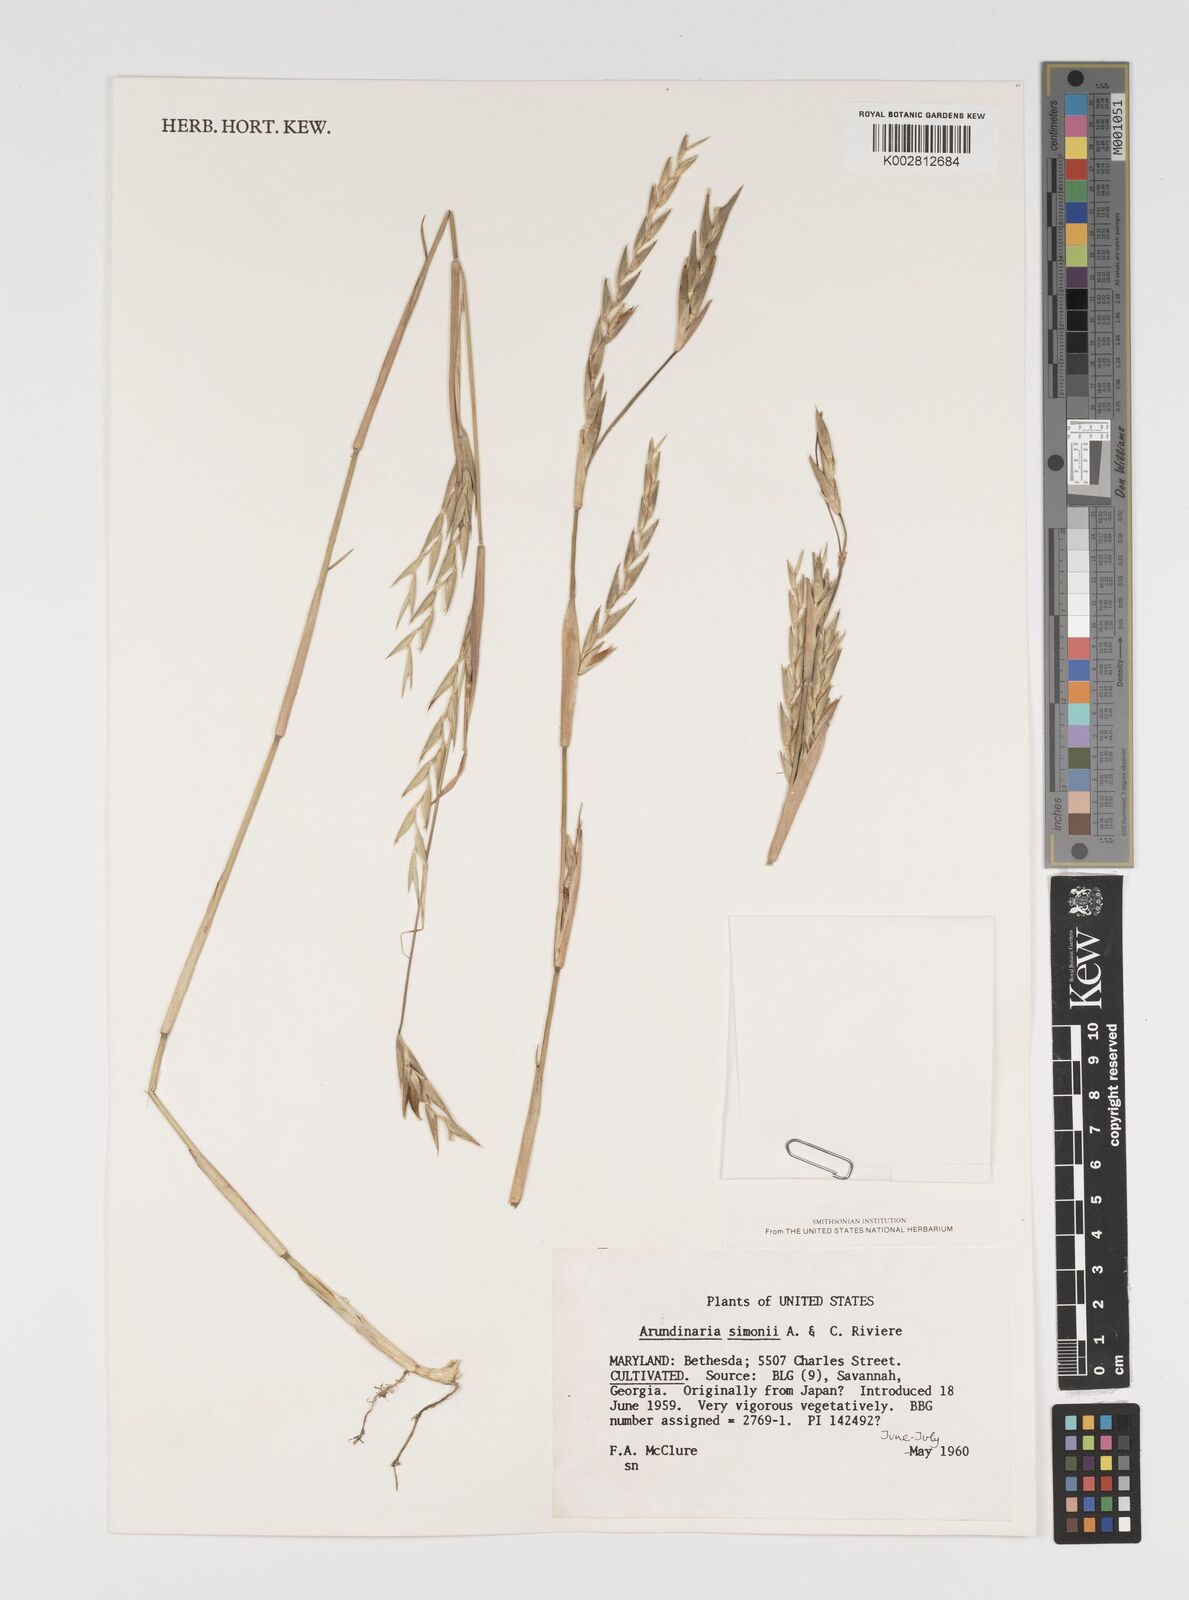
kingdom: Plantae
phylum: Tracheophyta
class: Liliopsida
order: Poales
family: Poaceae
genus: Pleioblastus
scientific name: Pleioblastus simonii
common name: Simon bamboo
